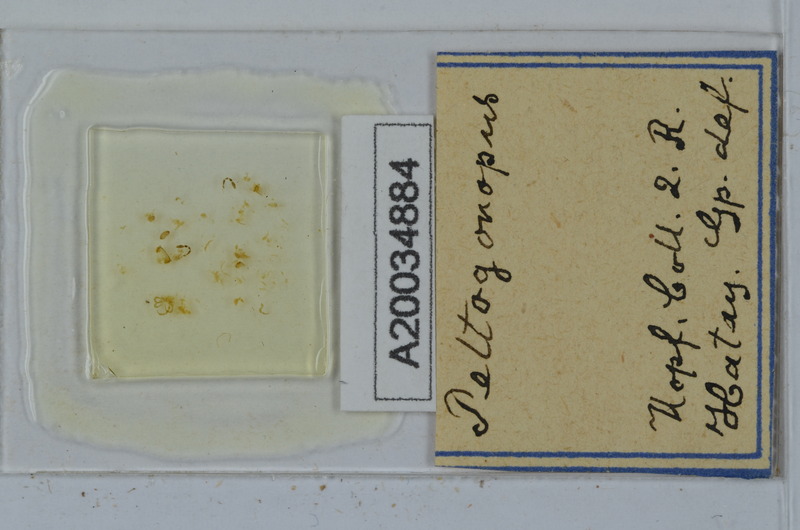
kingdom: Animalia
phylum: Arthropoda
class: Diplopoda
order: Polydesmida
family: Polydesmidae
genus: Peltogonopus
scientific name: Peltogonopus
